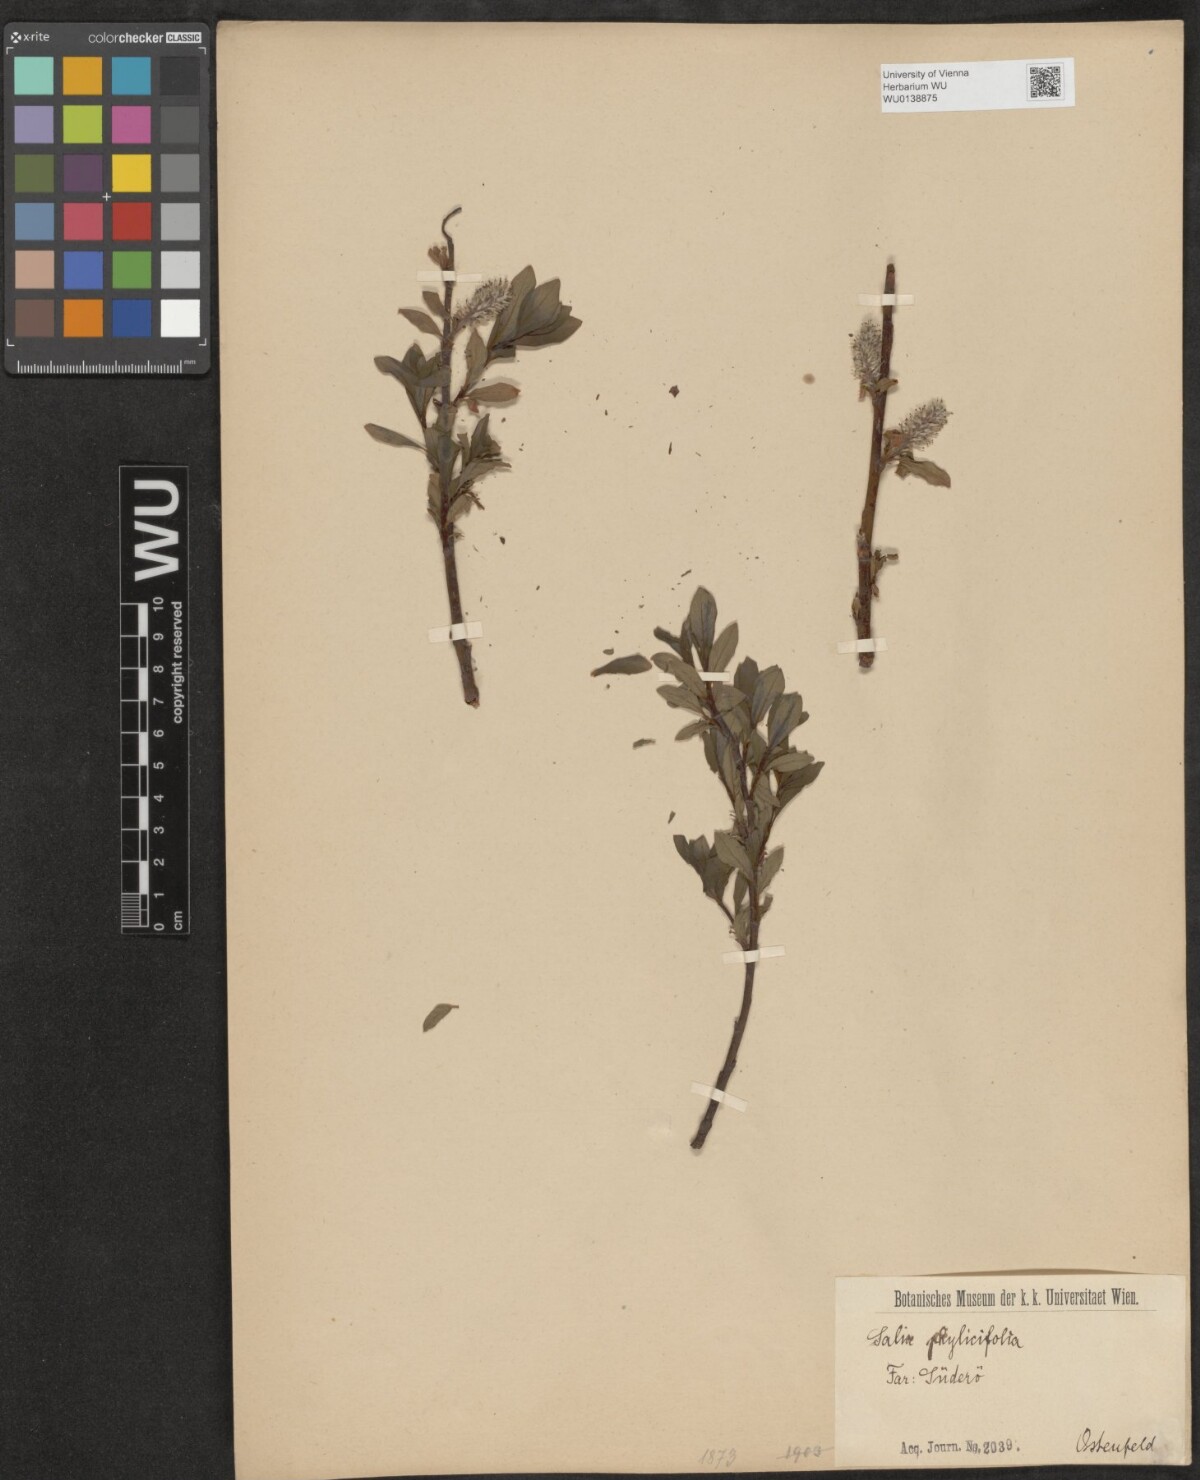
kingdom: Plantae
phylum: Tracheophyta
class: Magnoliopsida
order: Malpighiales
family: Salicaceae
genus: Salix
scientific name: Salix phylicifolia
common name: Tea-leaved willow
